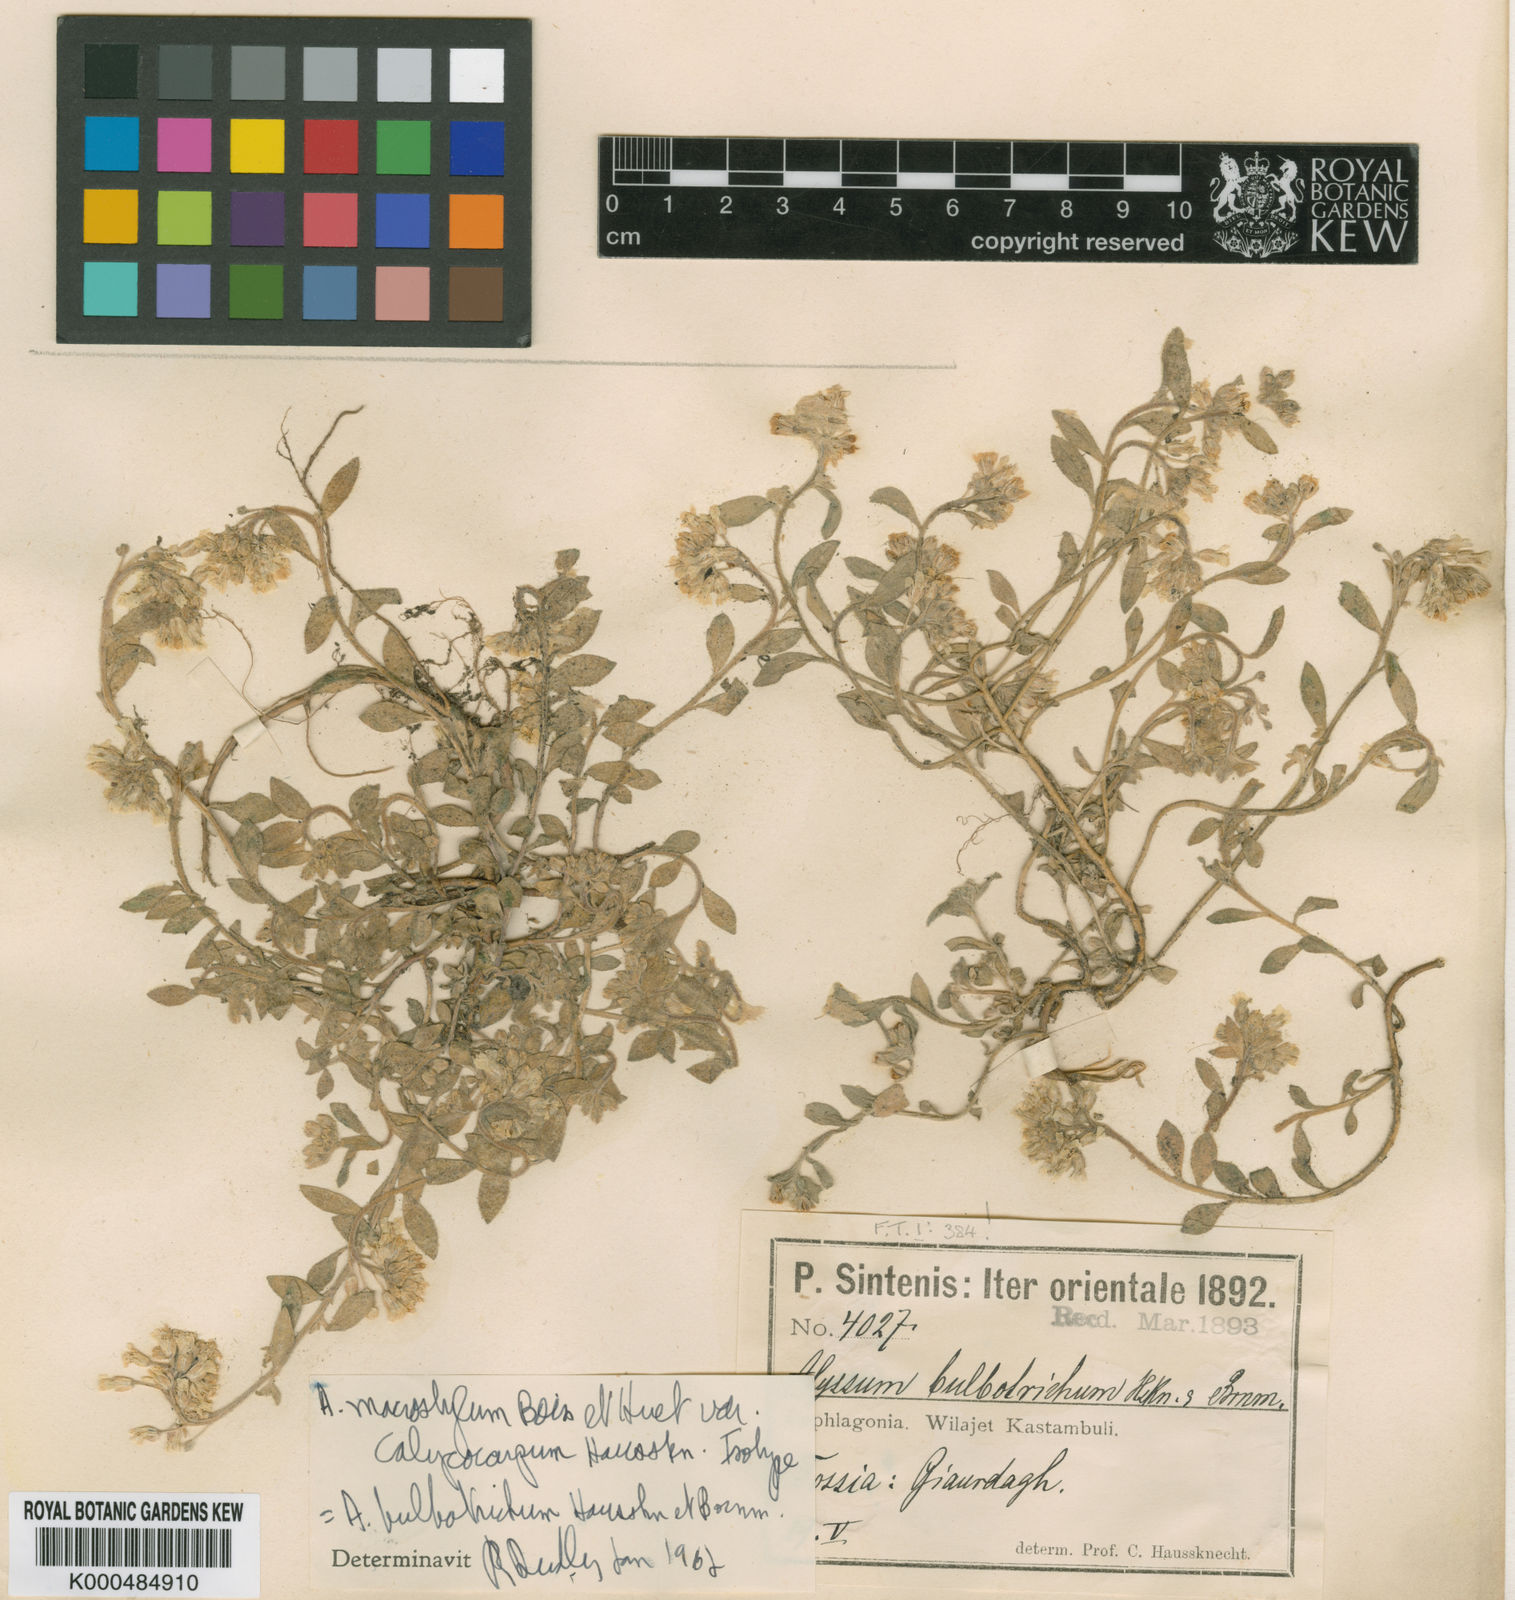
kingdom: Plantae
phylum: Tracheophyta
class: Magnoliopsida
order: Brassicales
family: Brassicaceae
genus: Alyssum
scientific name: Alyssum bulbotrichum
